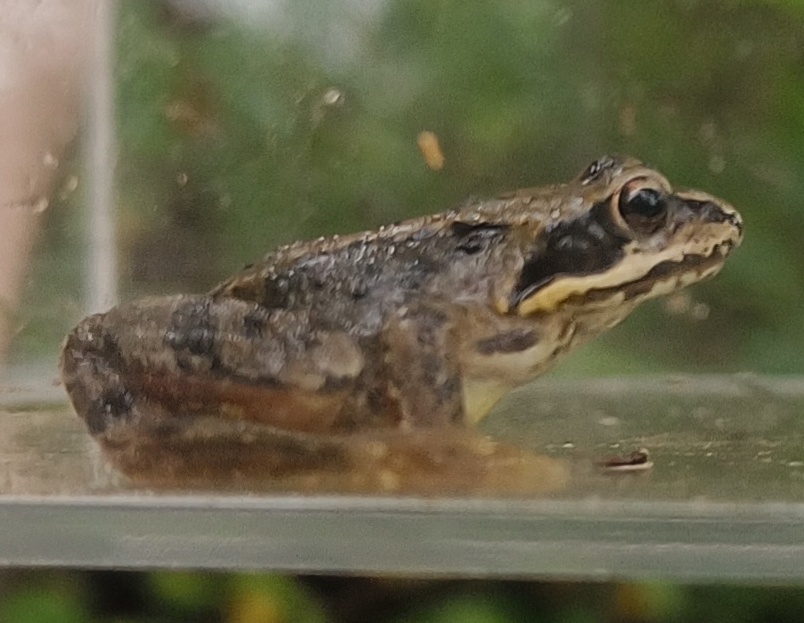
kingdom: Animalia
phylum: Chordata
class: Amphibia
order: Anura
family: Ranidae
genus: Rana
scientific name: Rana temporaria
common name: Butsnudet frø
